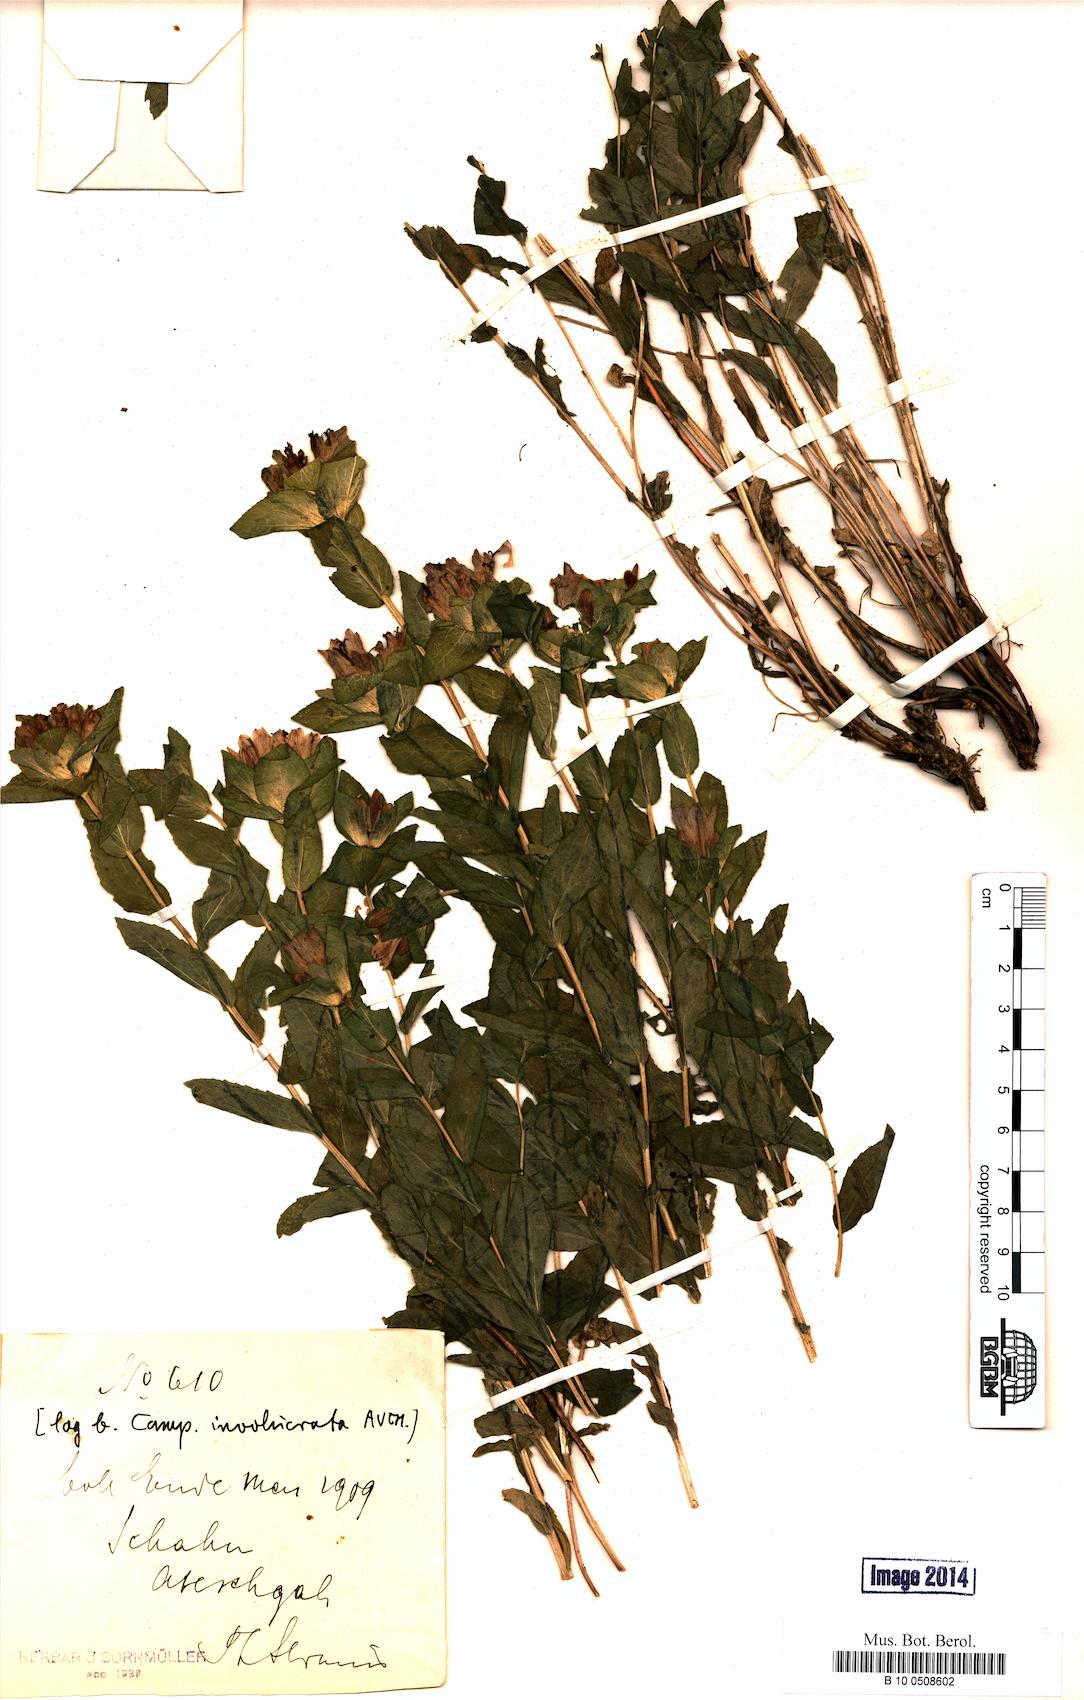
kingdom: Plantae
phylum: Tracheophyta
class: Magnoliopsida
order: Asterales
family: Campanulaceae
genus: Campanula
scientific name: Campanula involucrata
